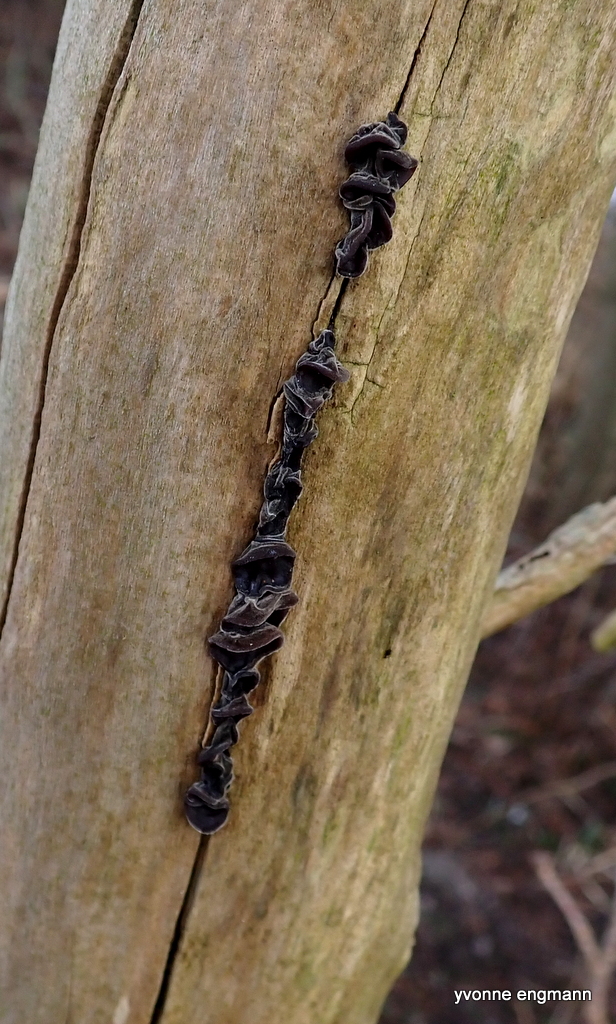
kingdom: Fungi
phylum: Basidiomycota
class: Agaricomycetes
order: Auriculariales
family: Auriculariaceae
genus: Auricularia
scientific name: Auricularia auricula-judae
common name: almindelig judasøre
